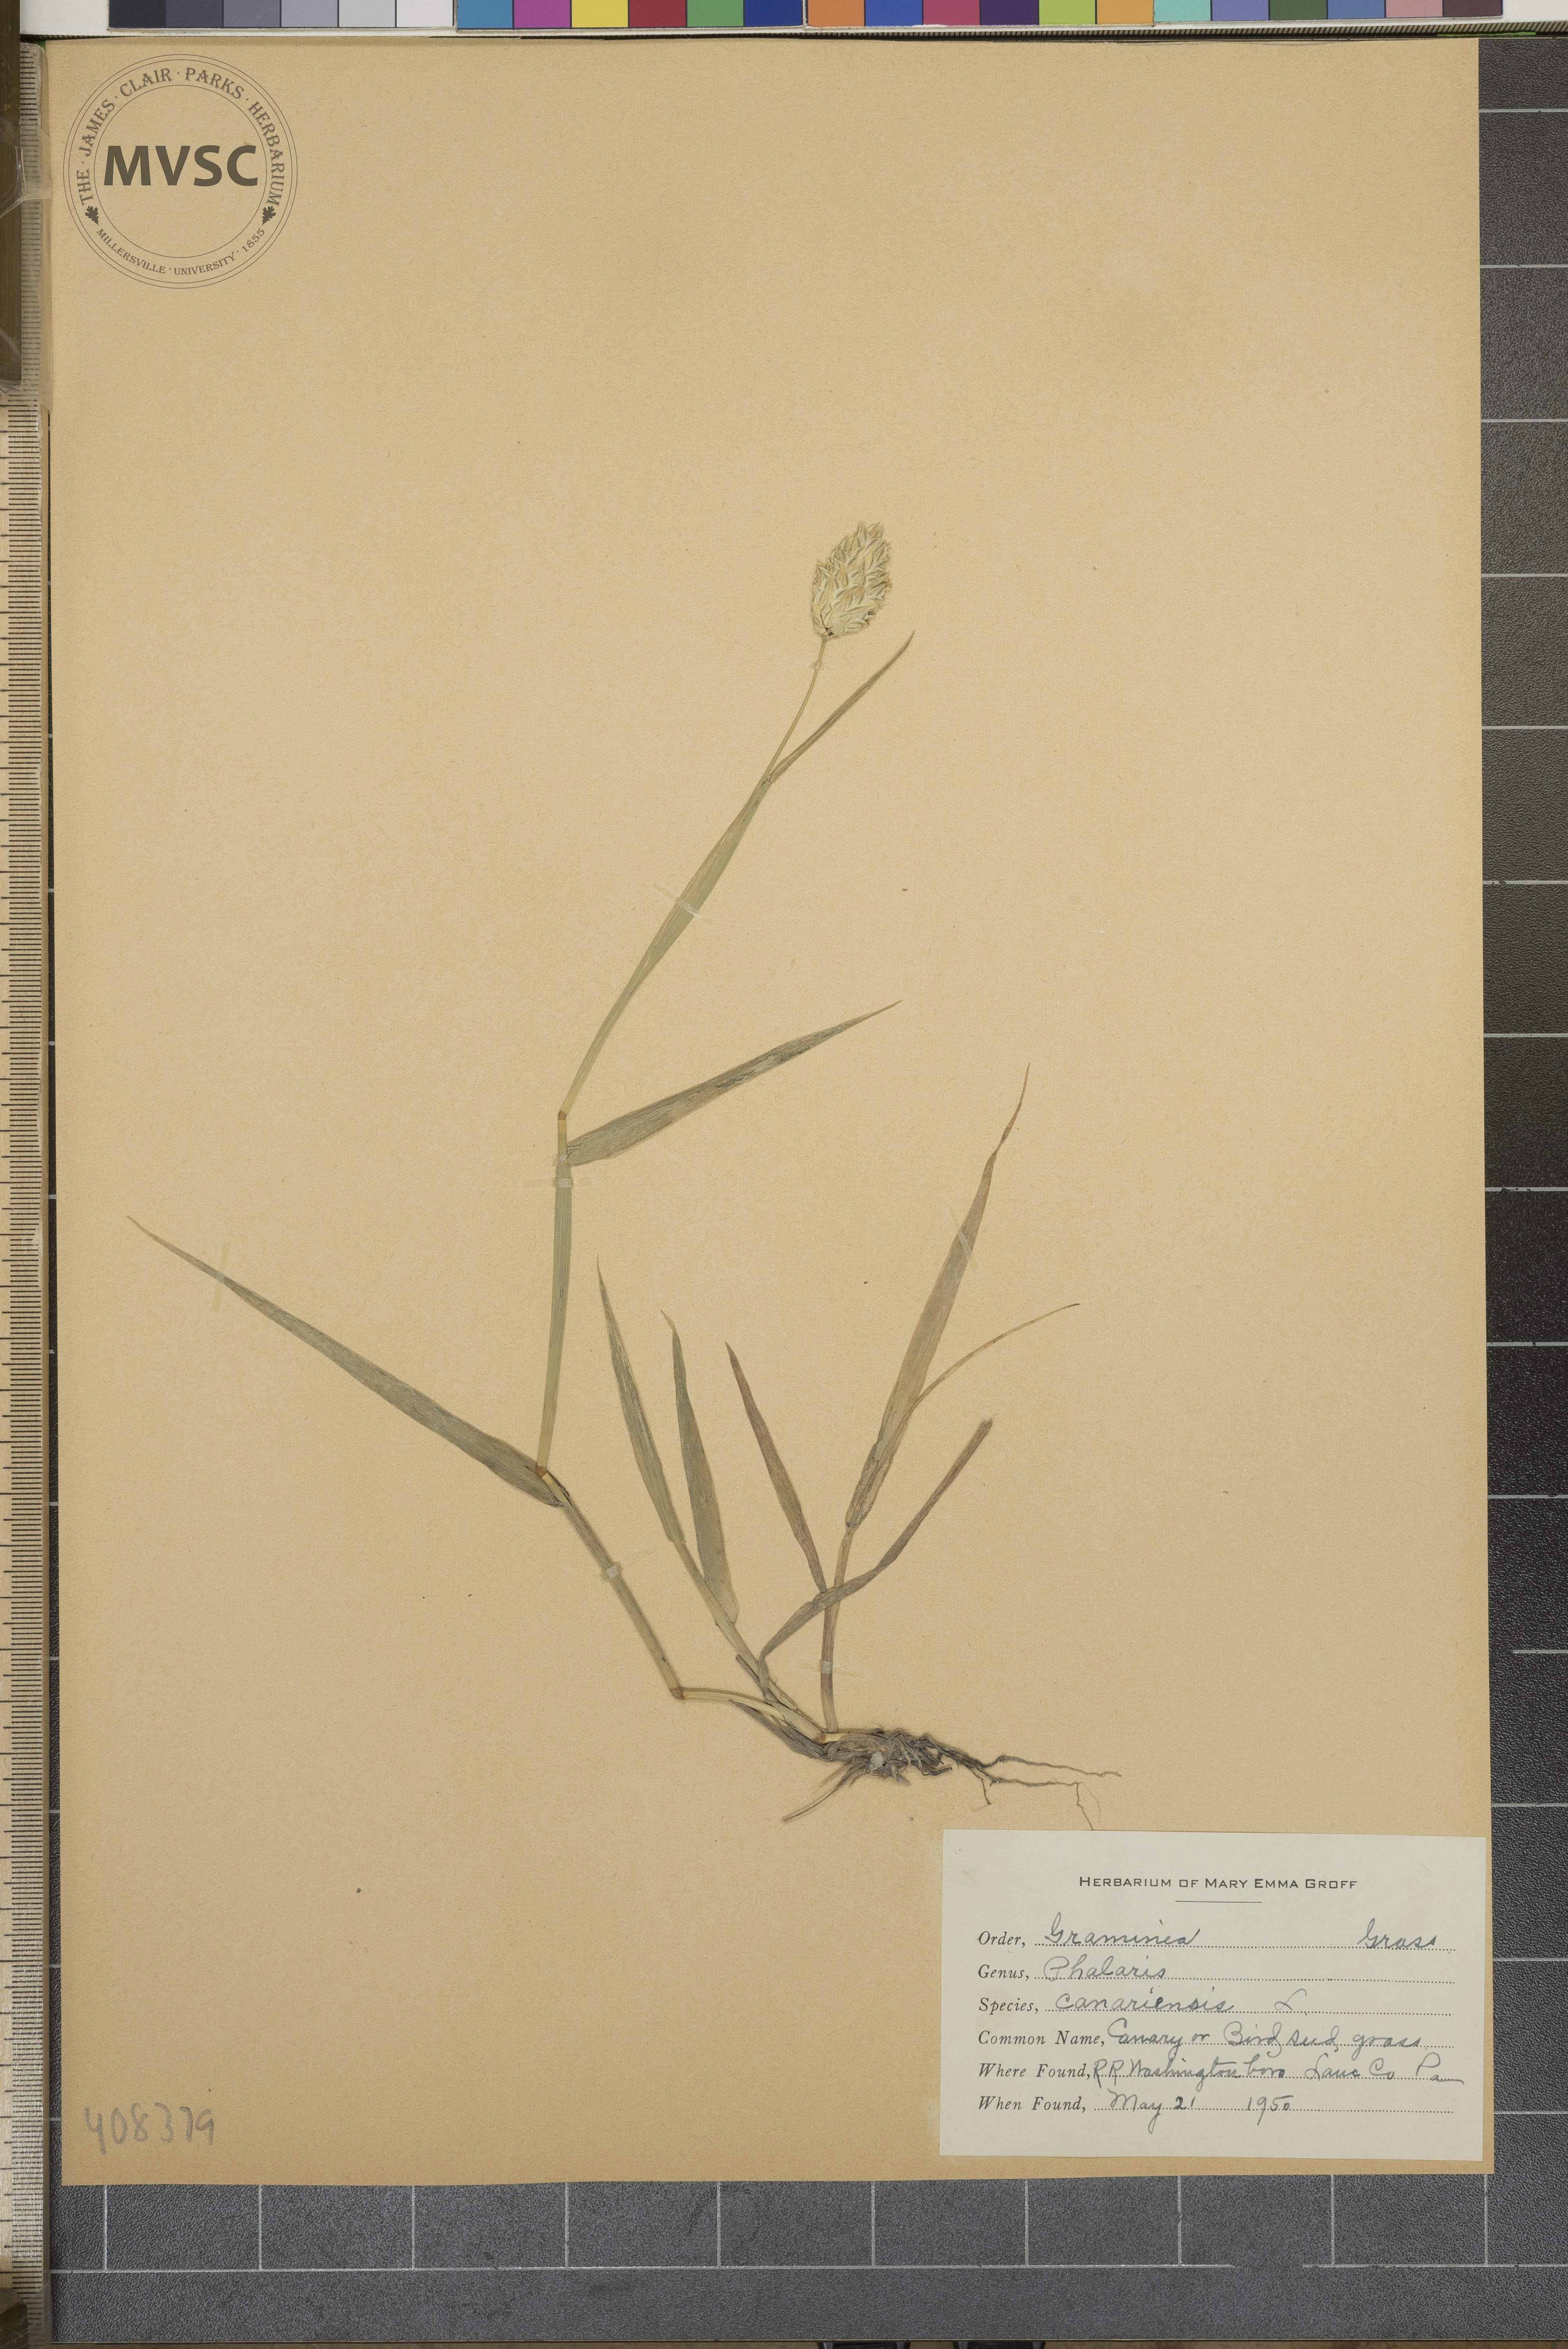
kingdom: Plantae
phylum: Tracheophyta
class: Liliopsida
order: Poales
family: Poaceae
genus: Phalaris
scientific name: Phalaris canariensis
